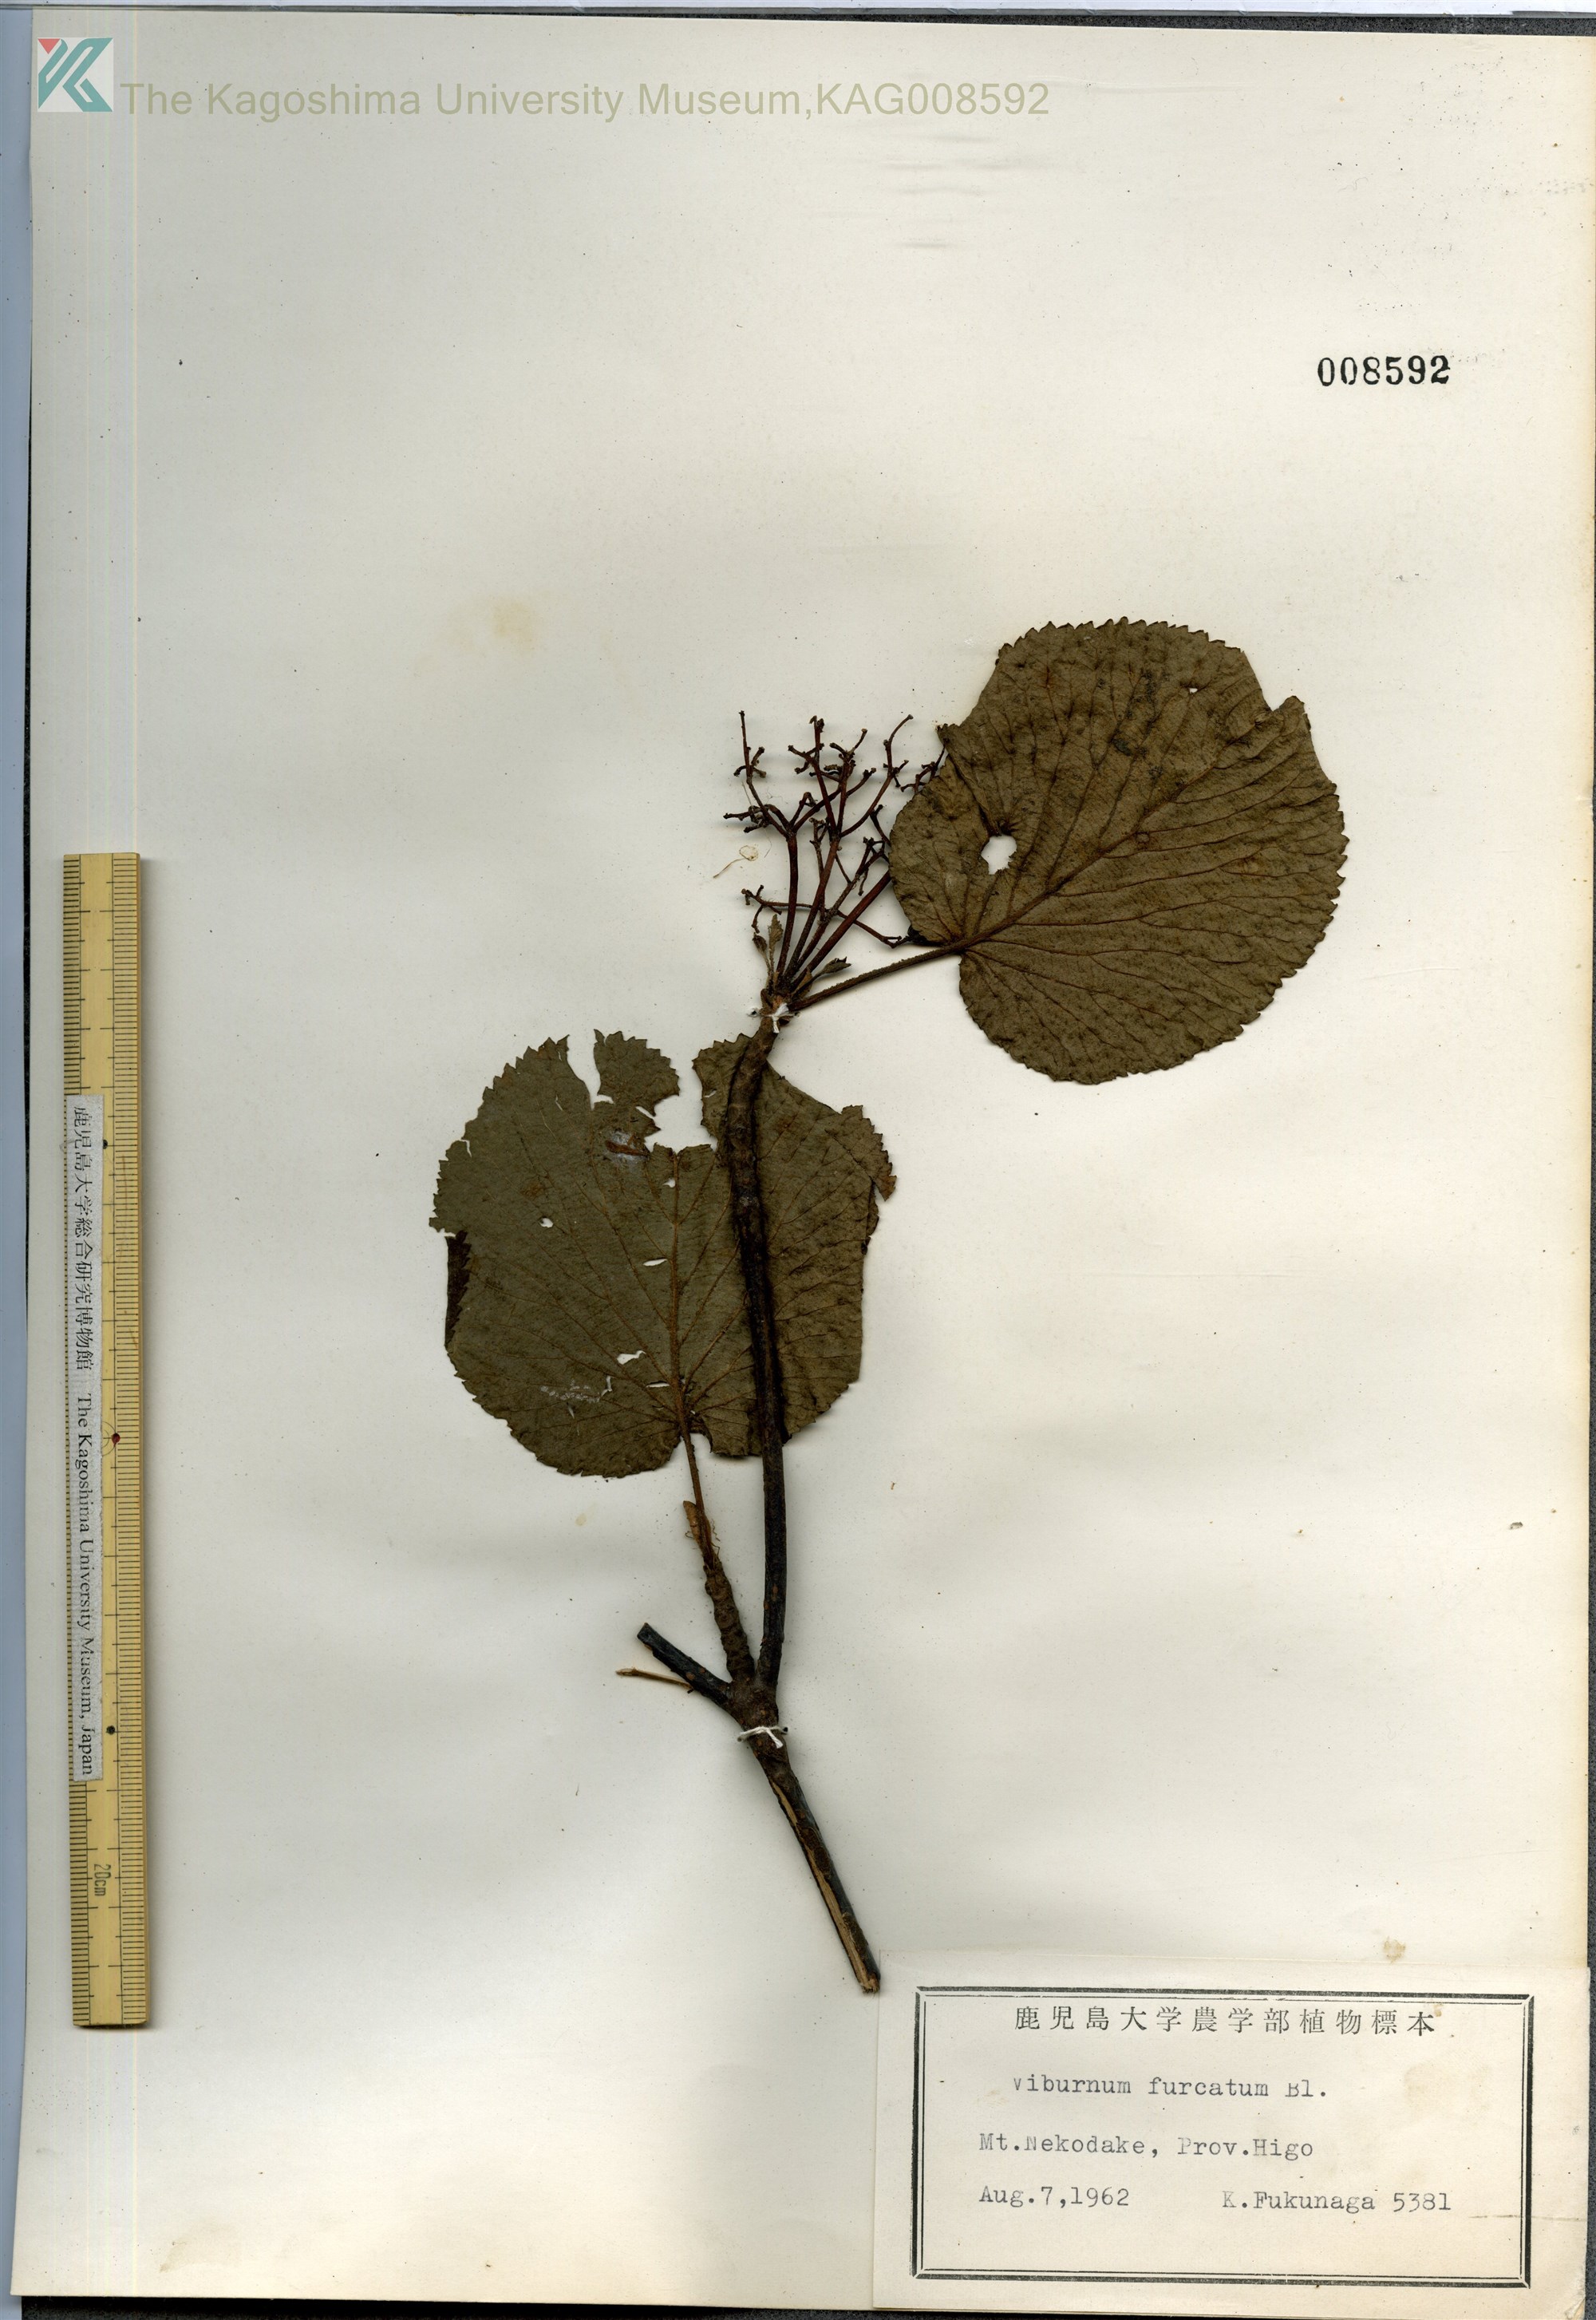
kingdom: Plantae
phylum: Tracheophyta
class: Magnoliopsida
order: Dipsacales
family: Viburnaceae
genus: Viburnum
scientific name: Viburnum furcatum
